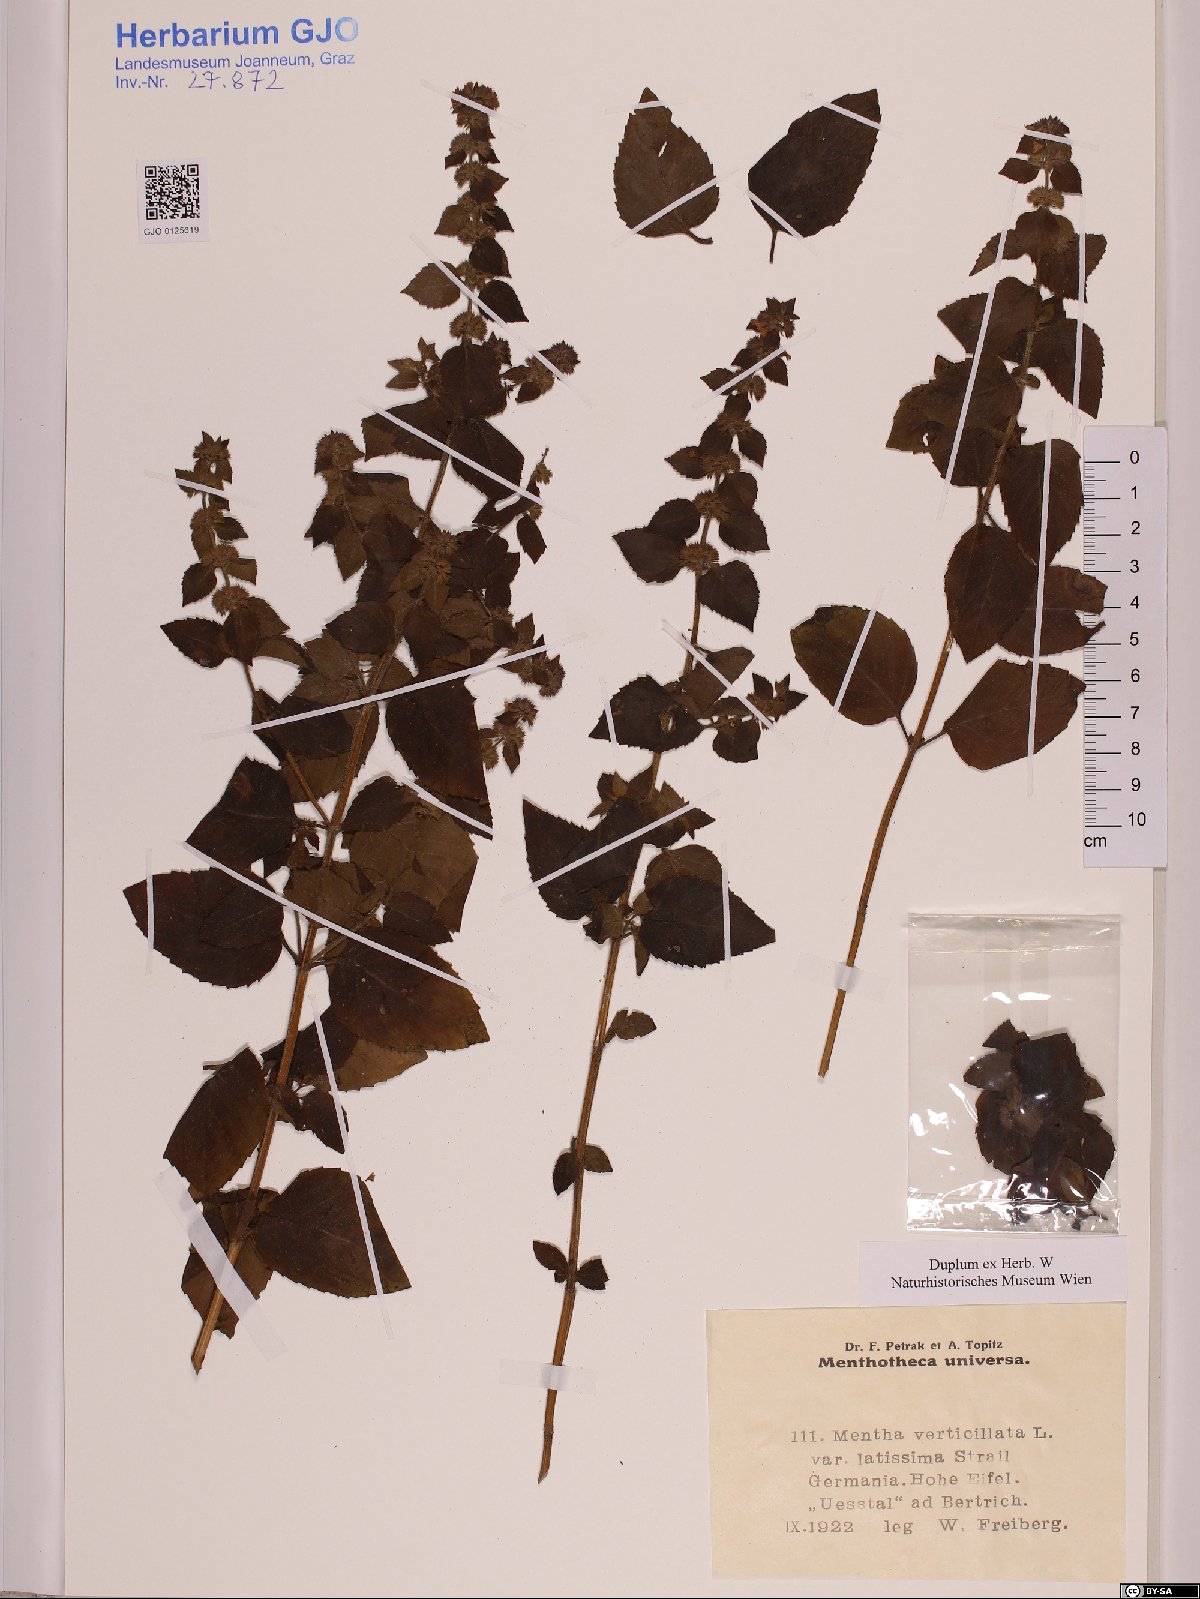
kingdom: Plantae
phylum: Tracheophyta
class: Magnoliopsida
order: Lamiales
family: Lamiaceae
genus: Mentha
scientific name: Mentha verticillata
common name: Mint
